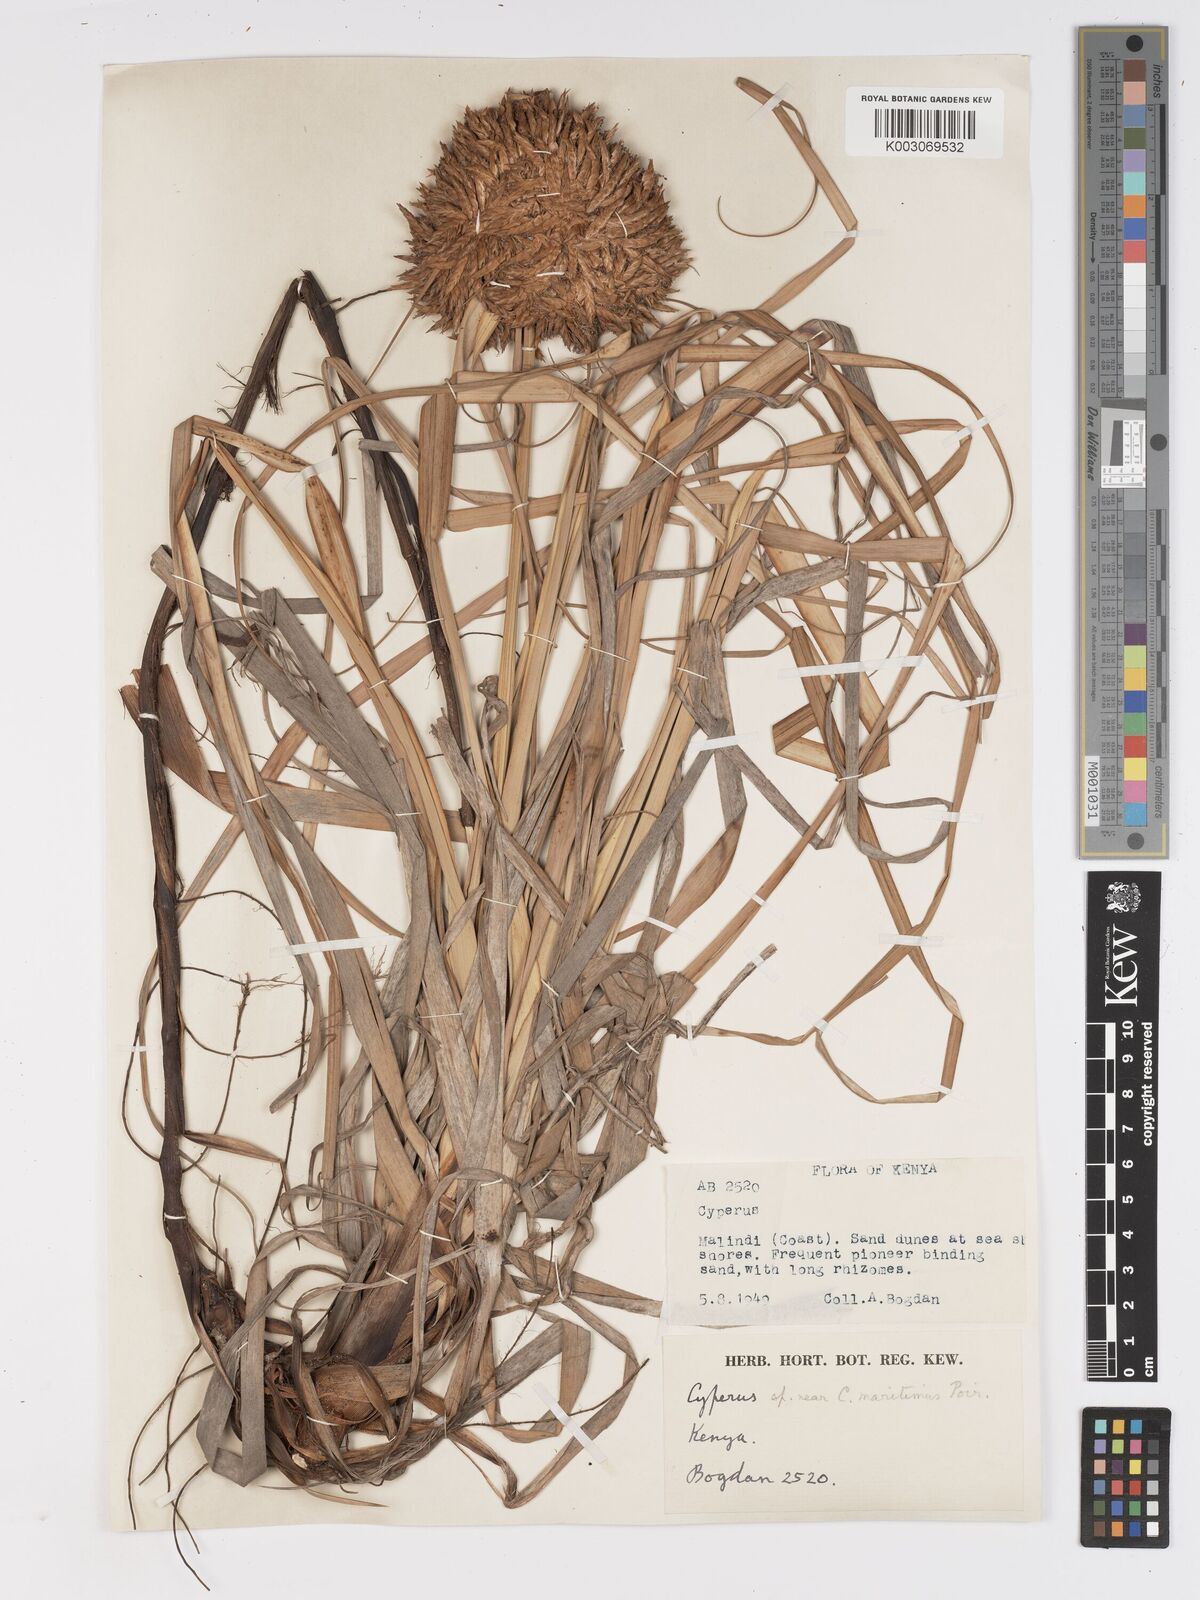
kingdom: Plantae
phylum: Tracheophyta
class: Liliopsida
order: Poales
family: Cyperaceae
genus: Cyperus
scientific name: Cyperus crassipes
